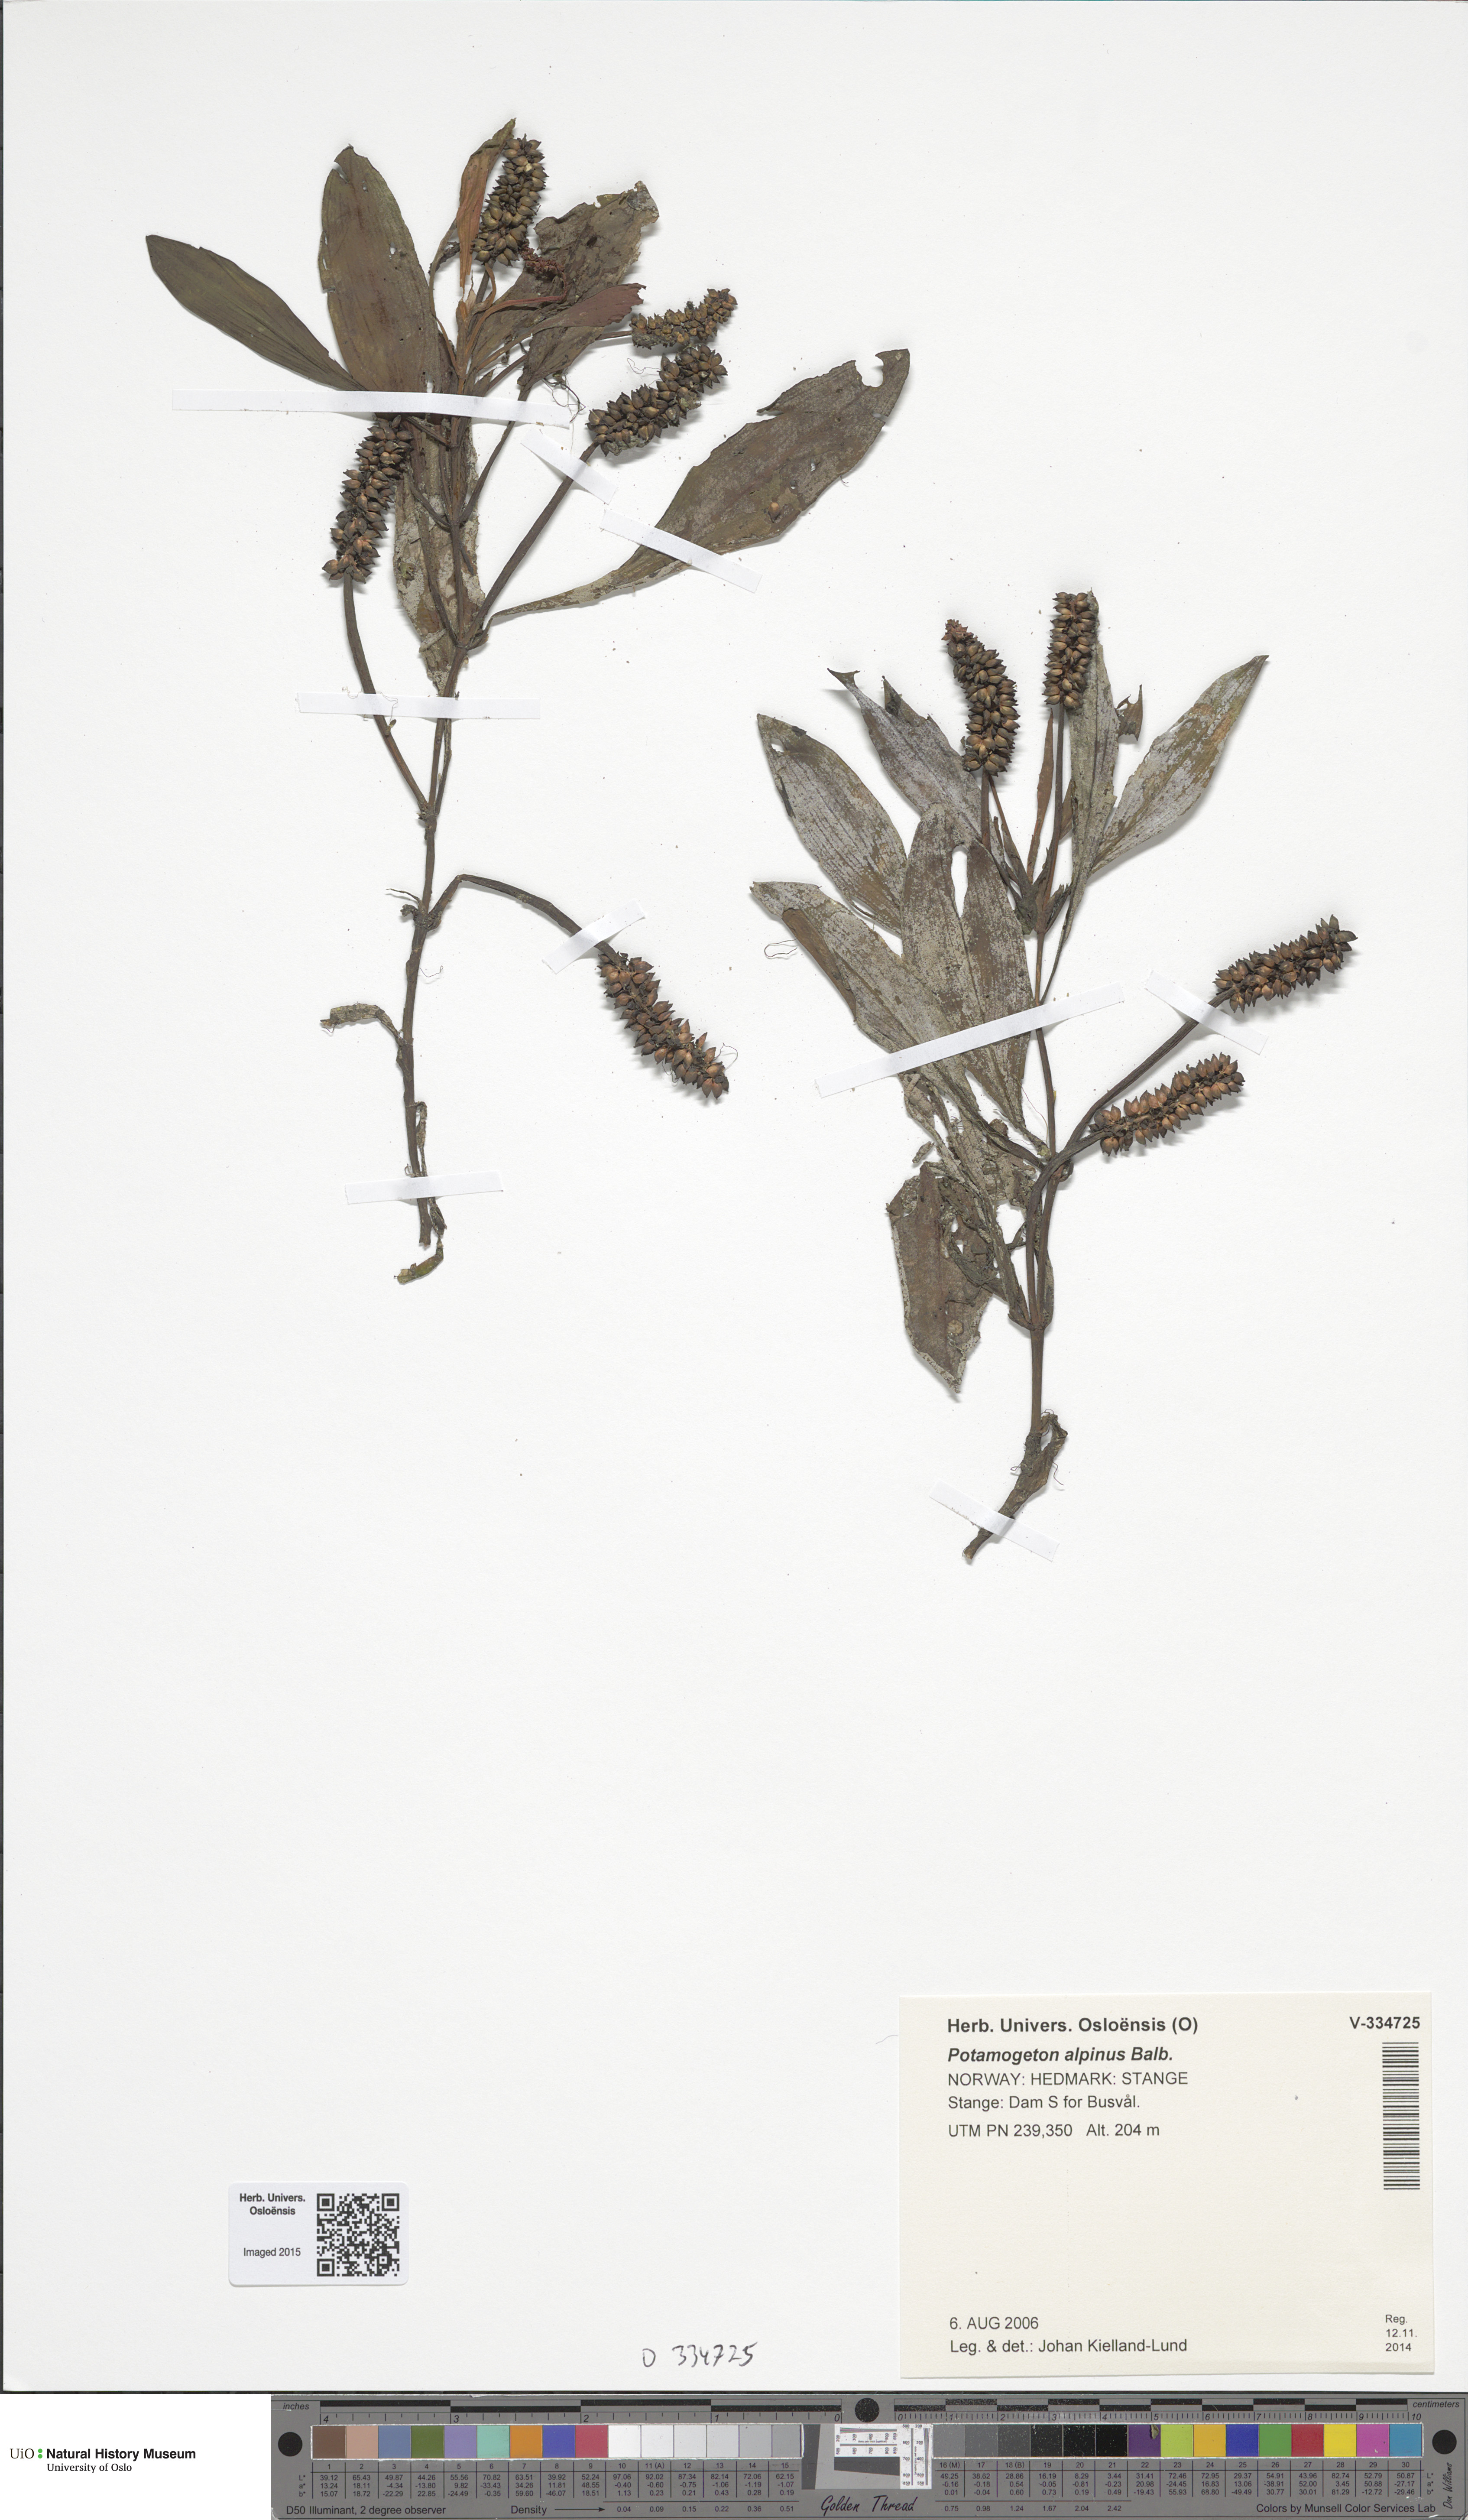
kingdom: Plantae
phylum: Tracheophyta
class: Liliopsida
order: Alismatales
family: Potamogetonaceae
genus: Potamogeton
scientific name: Potamogeton alpinus
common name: Red pondweed
